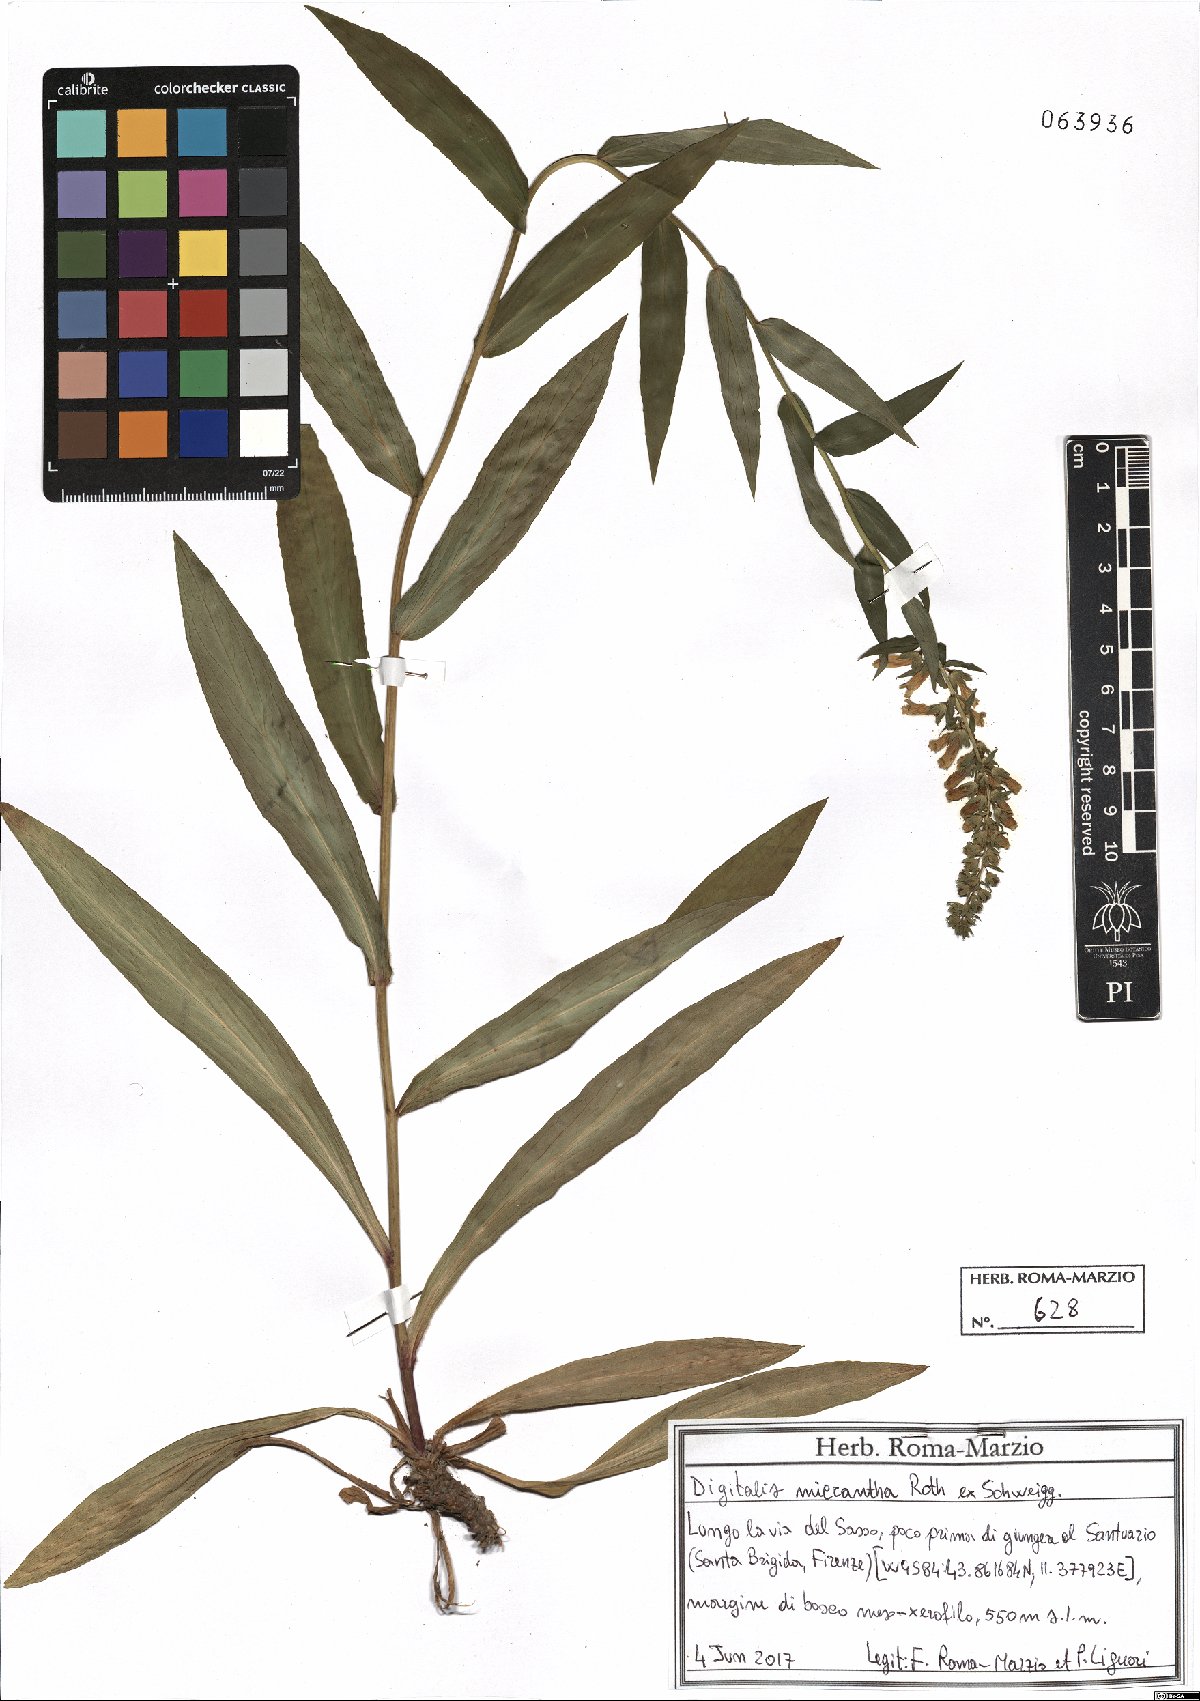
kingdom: Plantae
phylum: Tracheophyta
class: Magnoliopsida
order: Lamiales
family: Plantaginaceae
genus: Digitalis
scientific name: Digitalis lutea
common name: Straw foxglove
